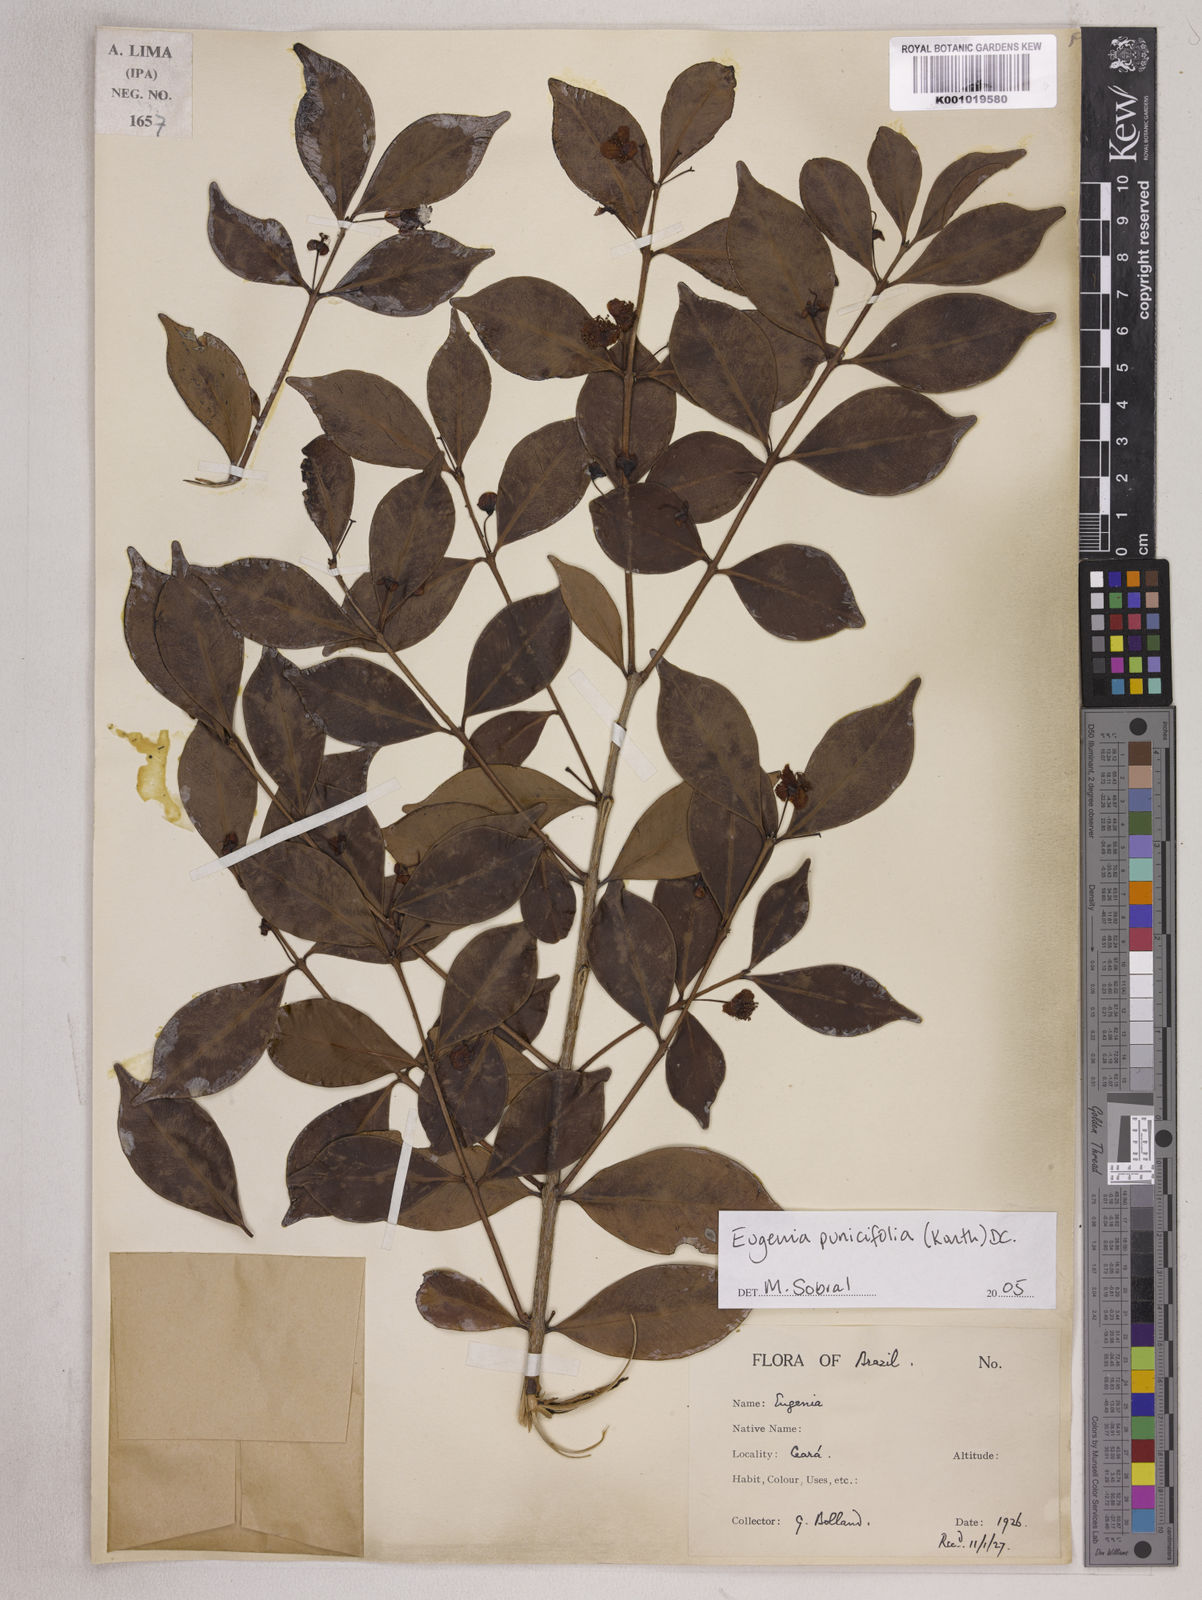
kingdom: Plantae
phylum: Tracheophyta
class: Magnoliopsida
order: Myrtales
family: Myrtaceae
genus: Eugenia
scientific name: Eugenia punicifolia
